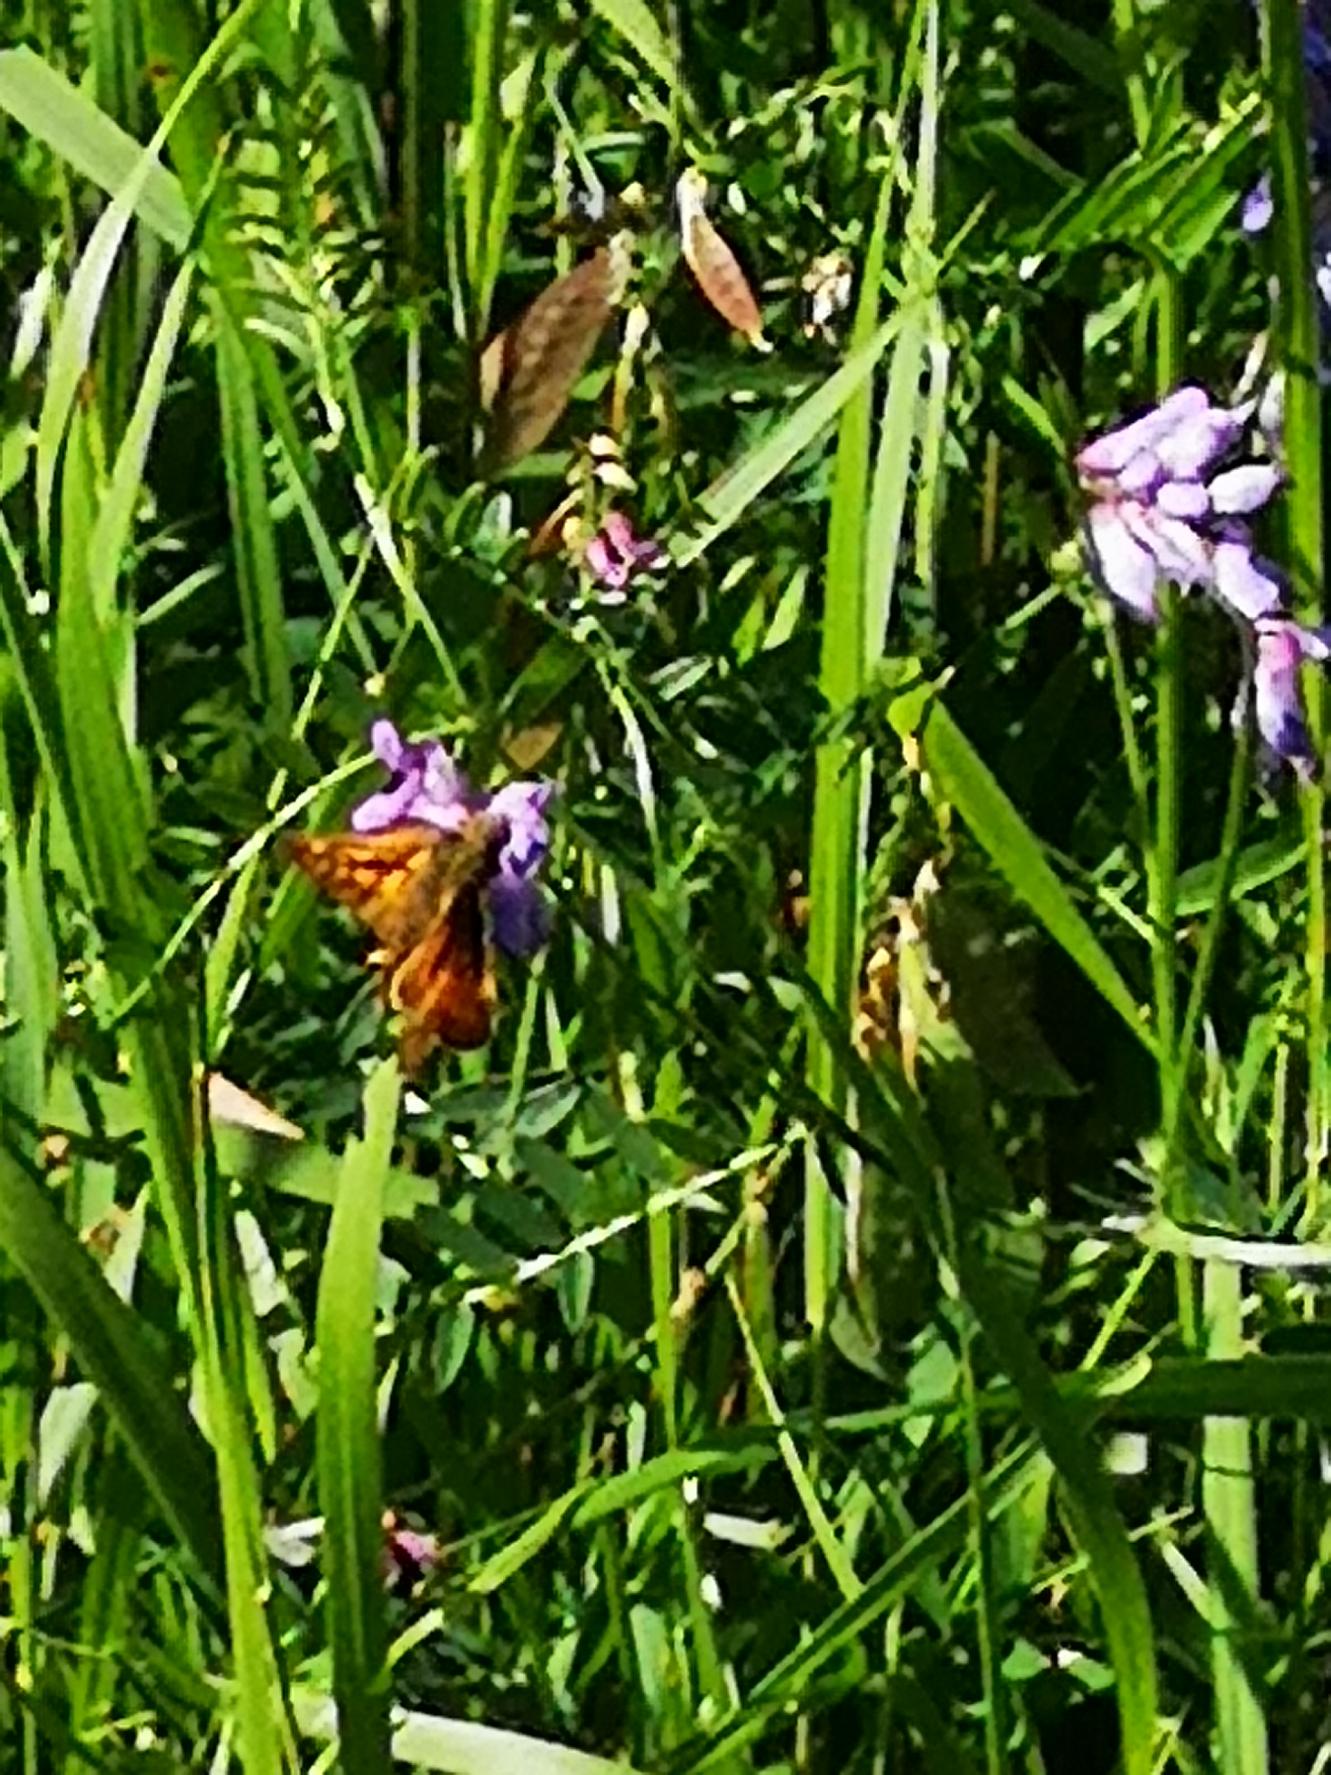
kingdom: Animalia
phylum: Arthropoda
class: Insecta
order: Lepidoptera
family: Hesperiidae
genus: Ochlodes
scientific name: Ochlodes venata
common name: Stor bredpande
